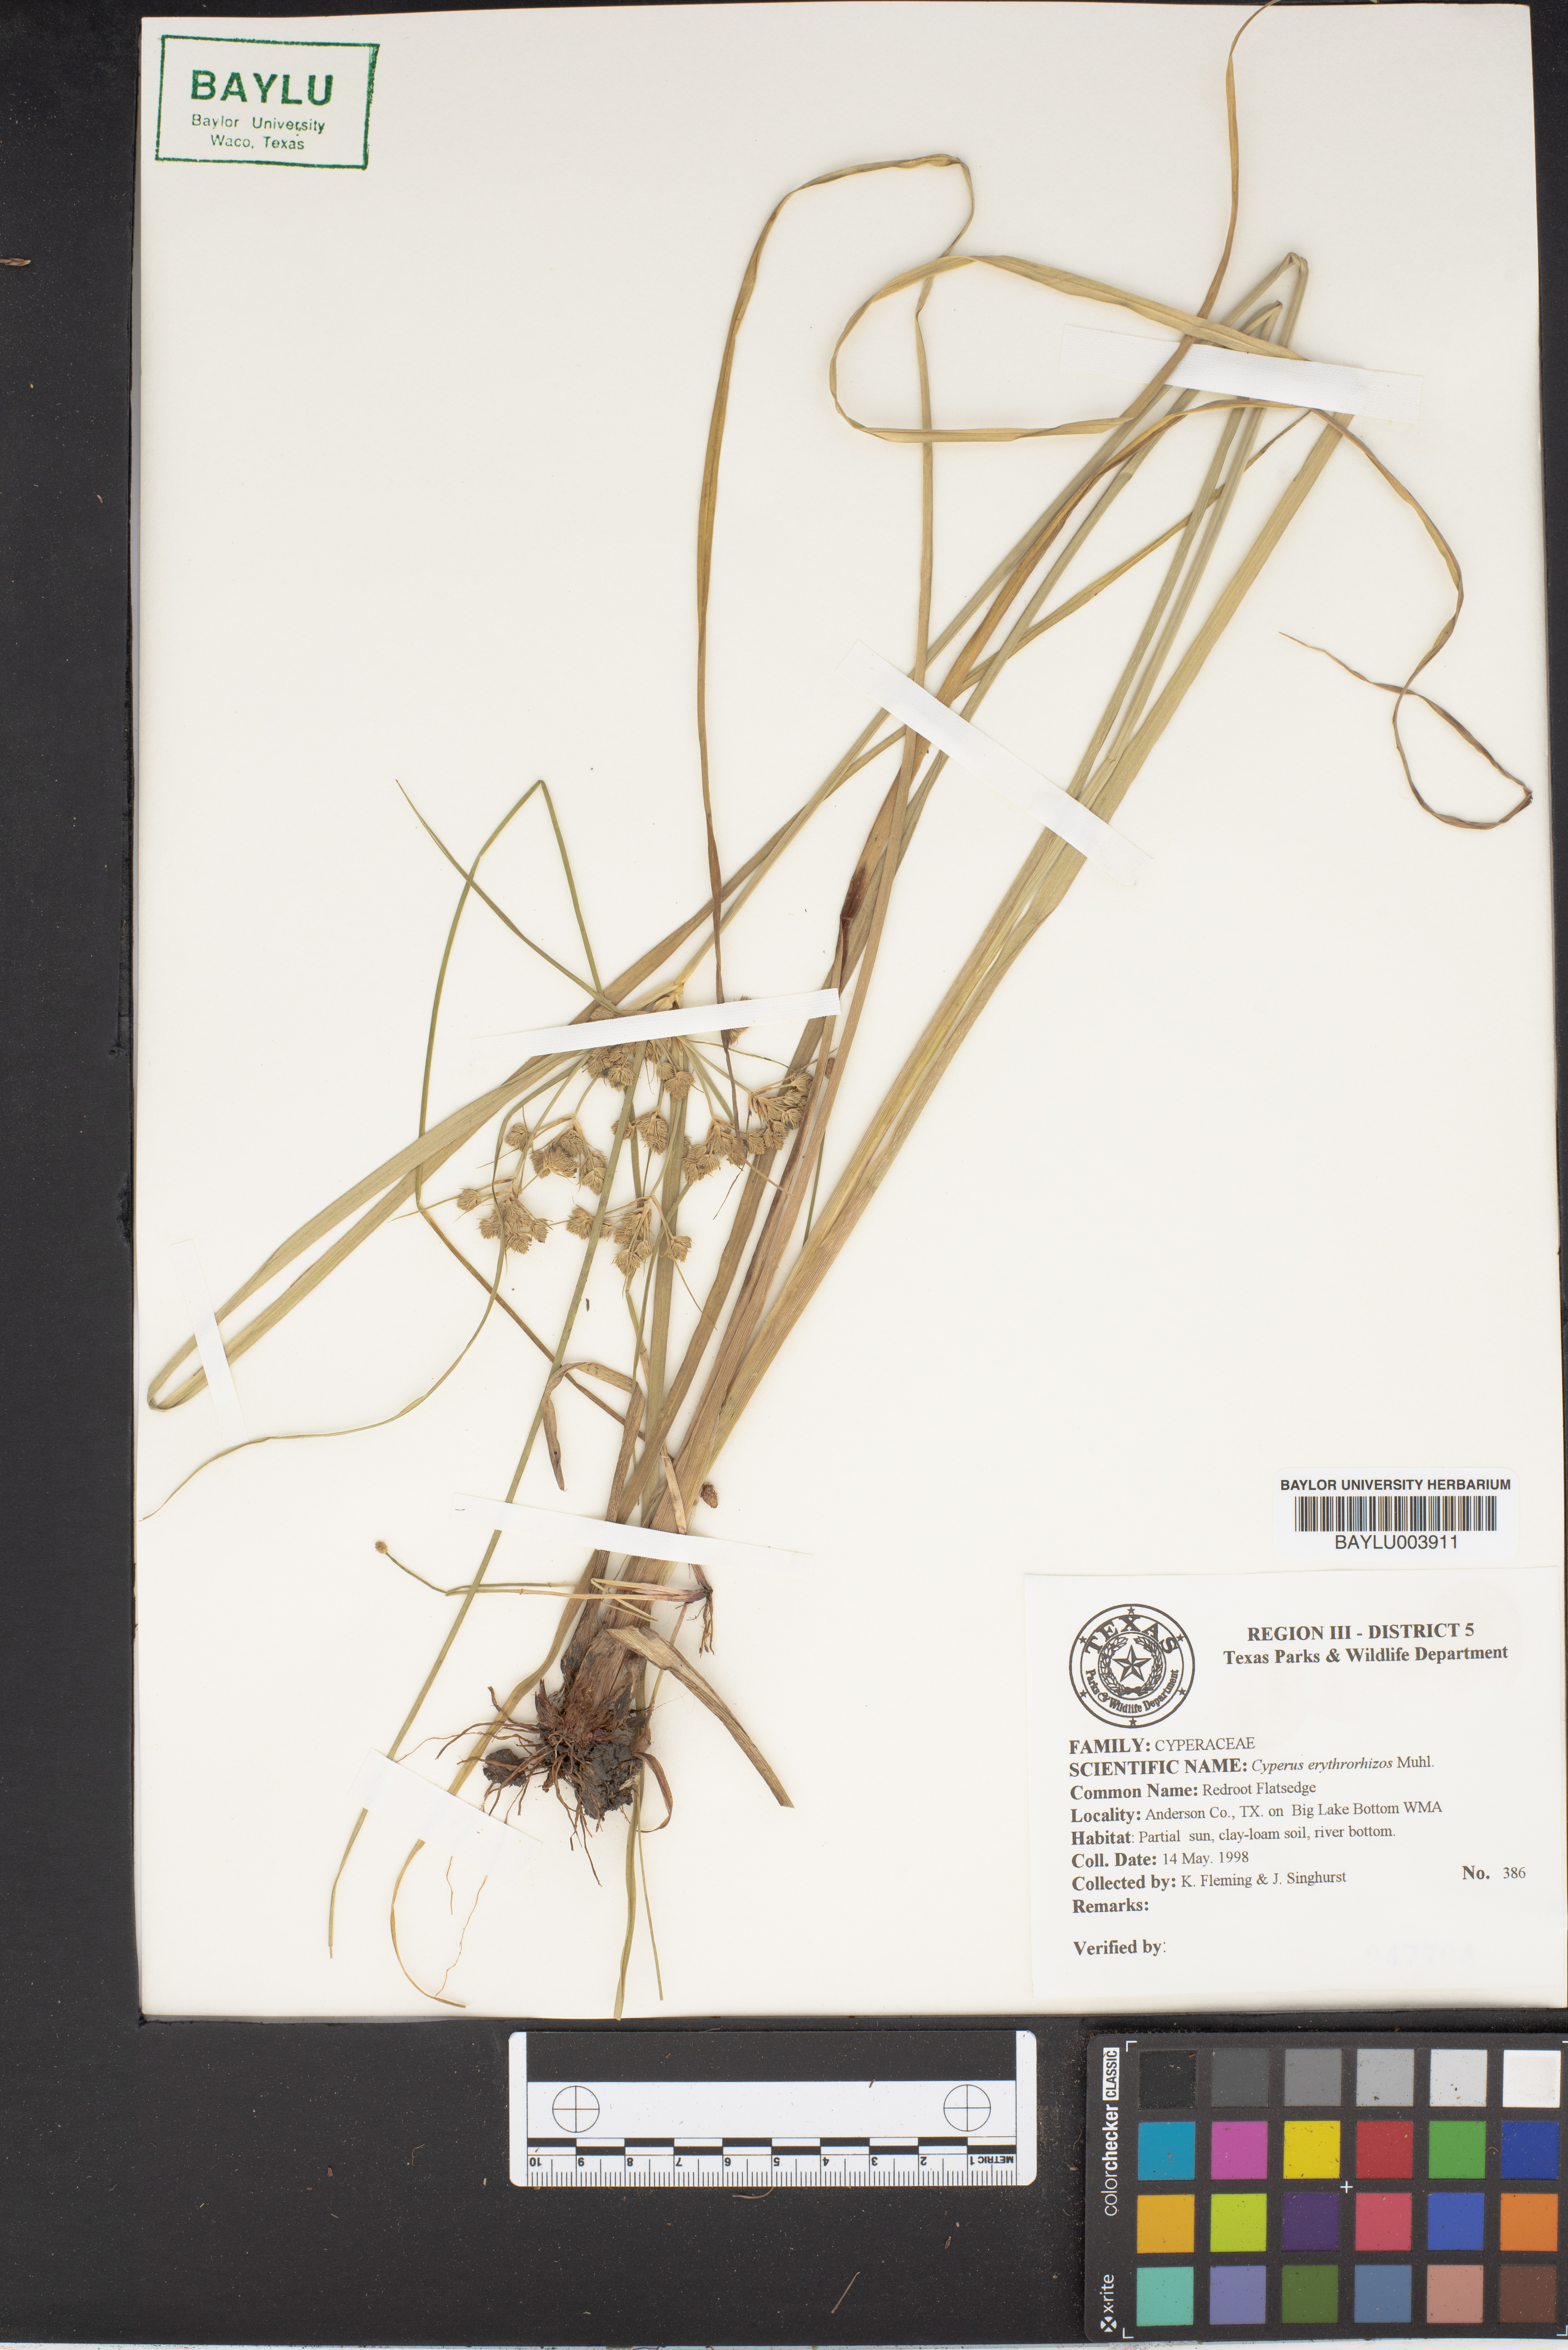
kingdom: Plantae
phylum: Tracheophyta
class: Liliopsida
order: Poales
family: Cyperaceae
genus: Cyperus
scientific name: Cyperus erythrorhizos
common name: Red-root flat sedge
